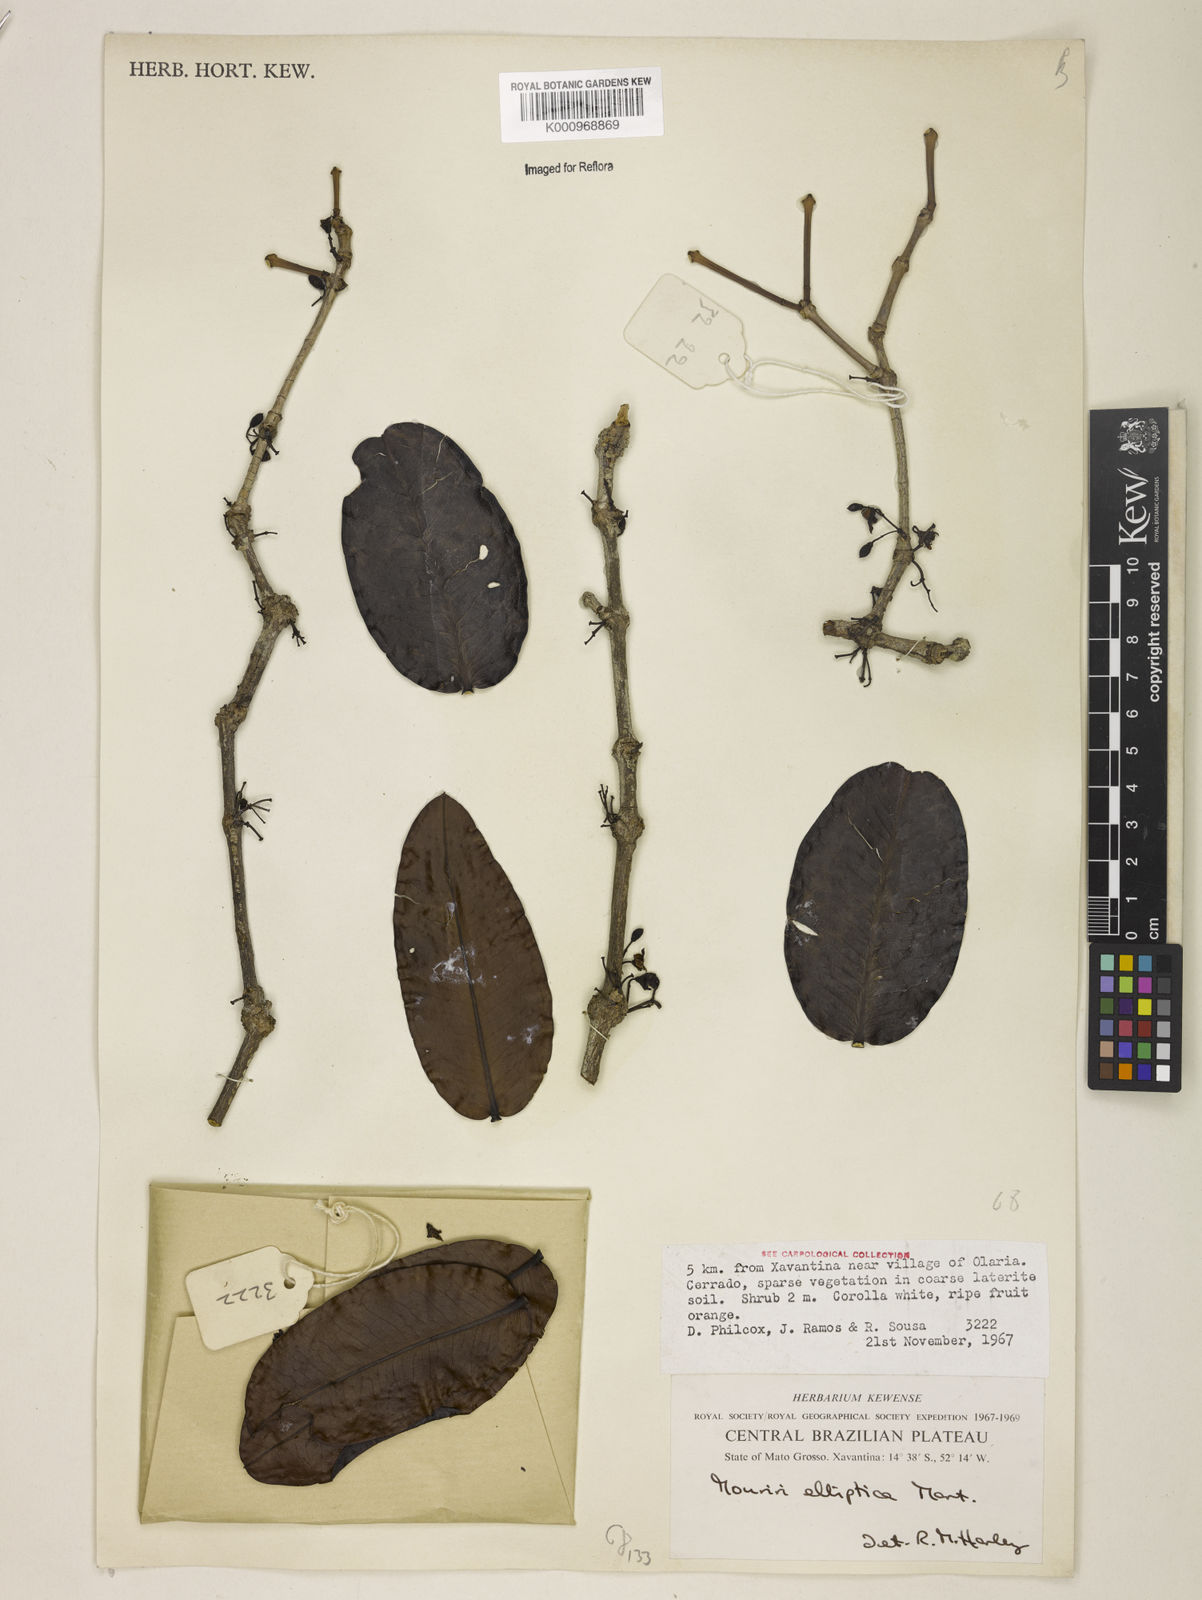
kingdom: Plantae
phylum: Tracheophyta
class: Magnoliopsida
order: Myrtales
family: Melastomataceae
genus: Mouriri
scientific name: Mouriri elliptica
